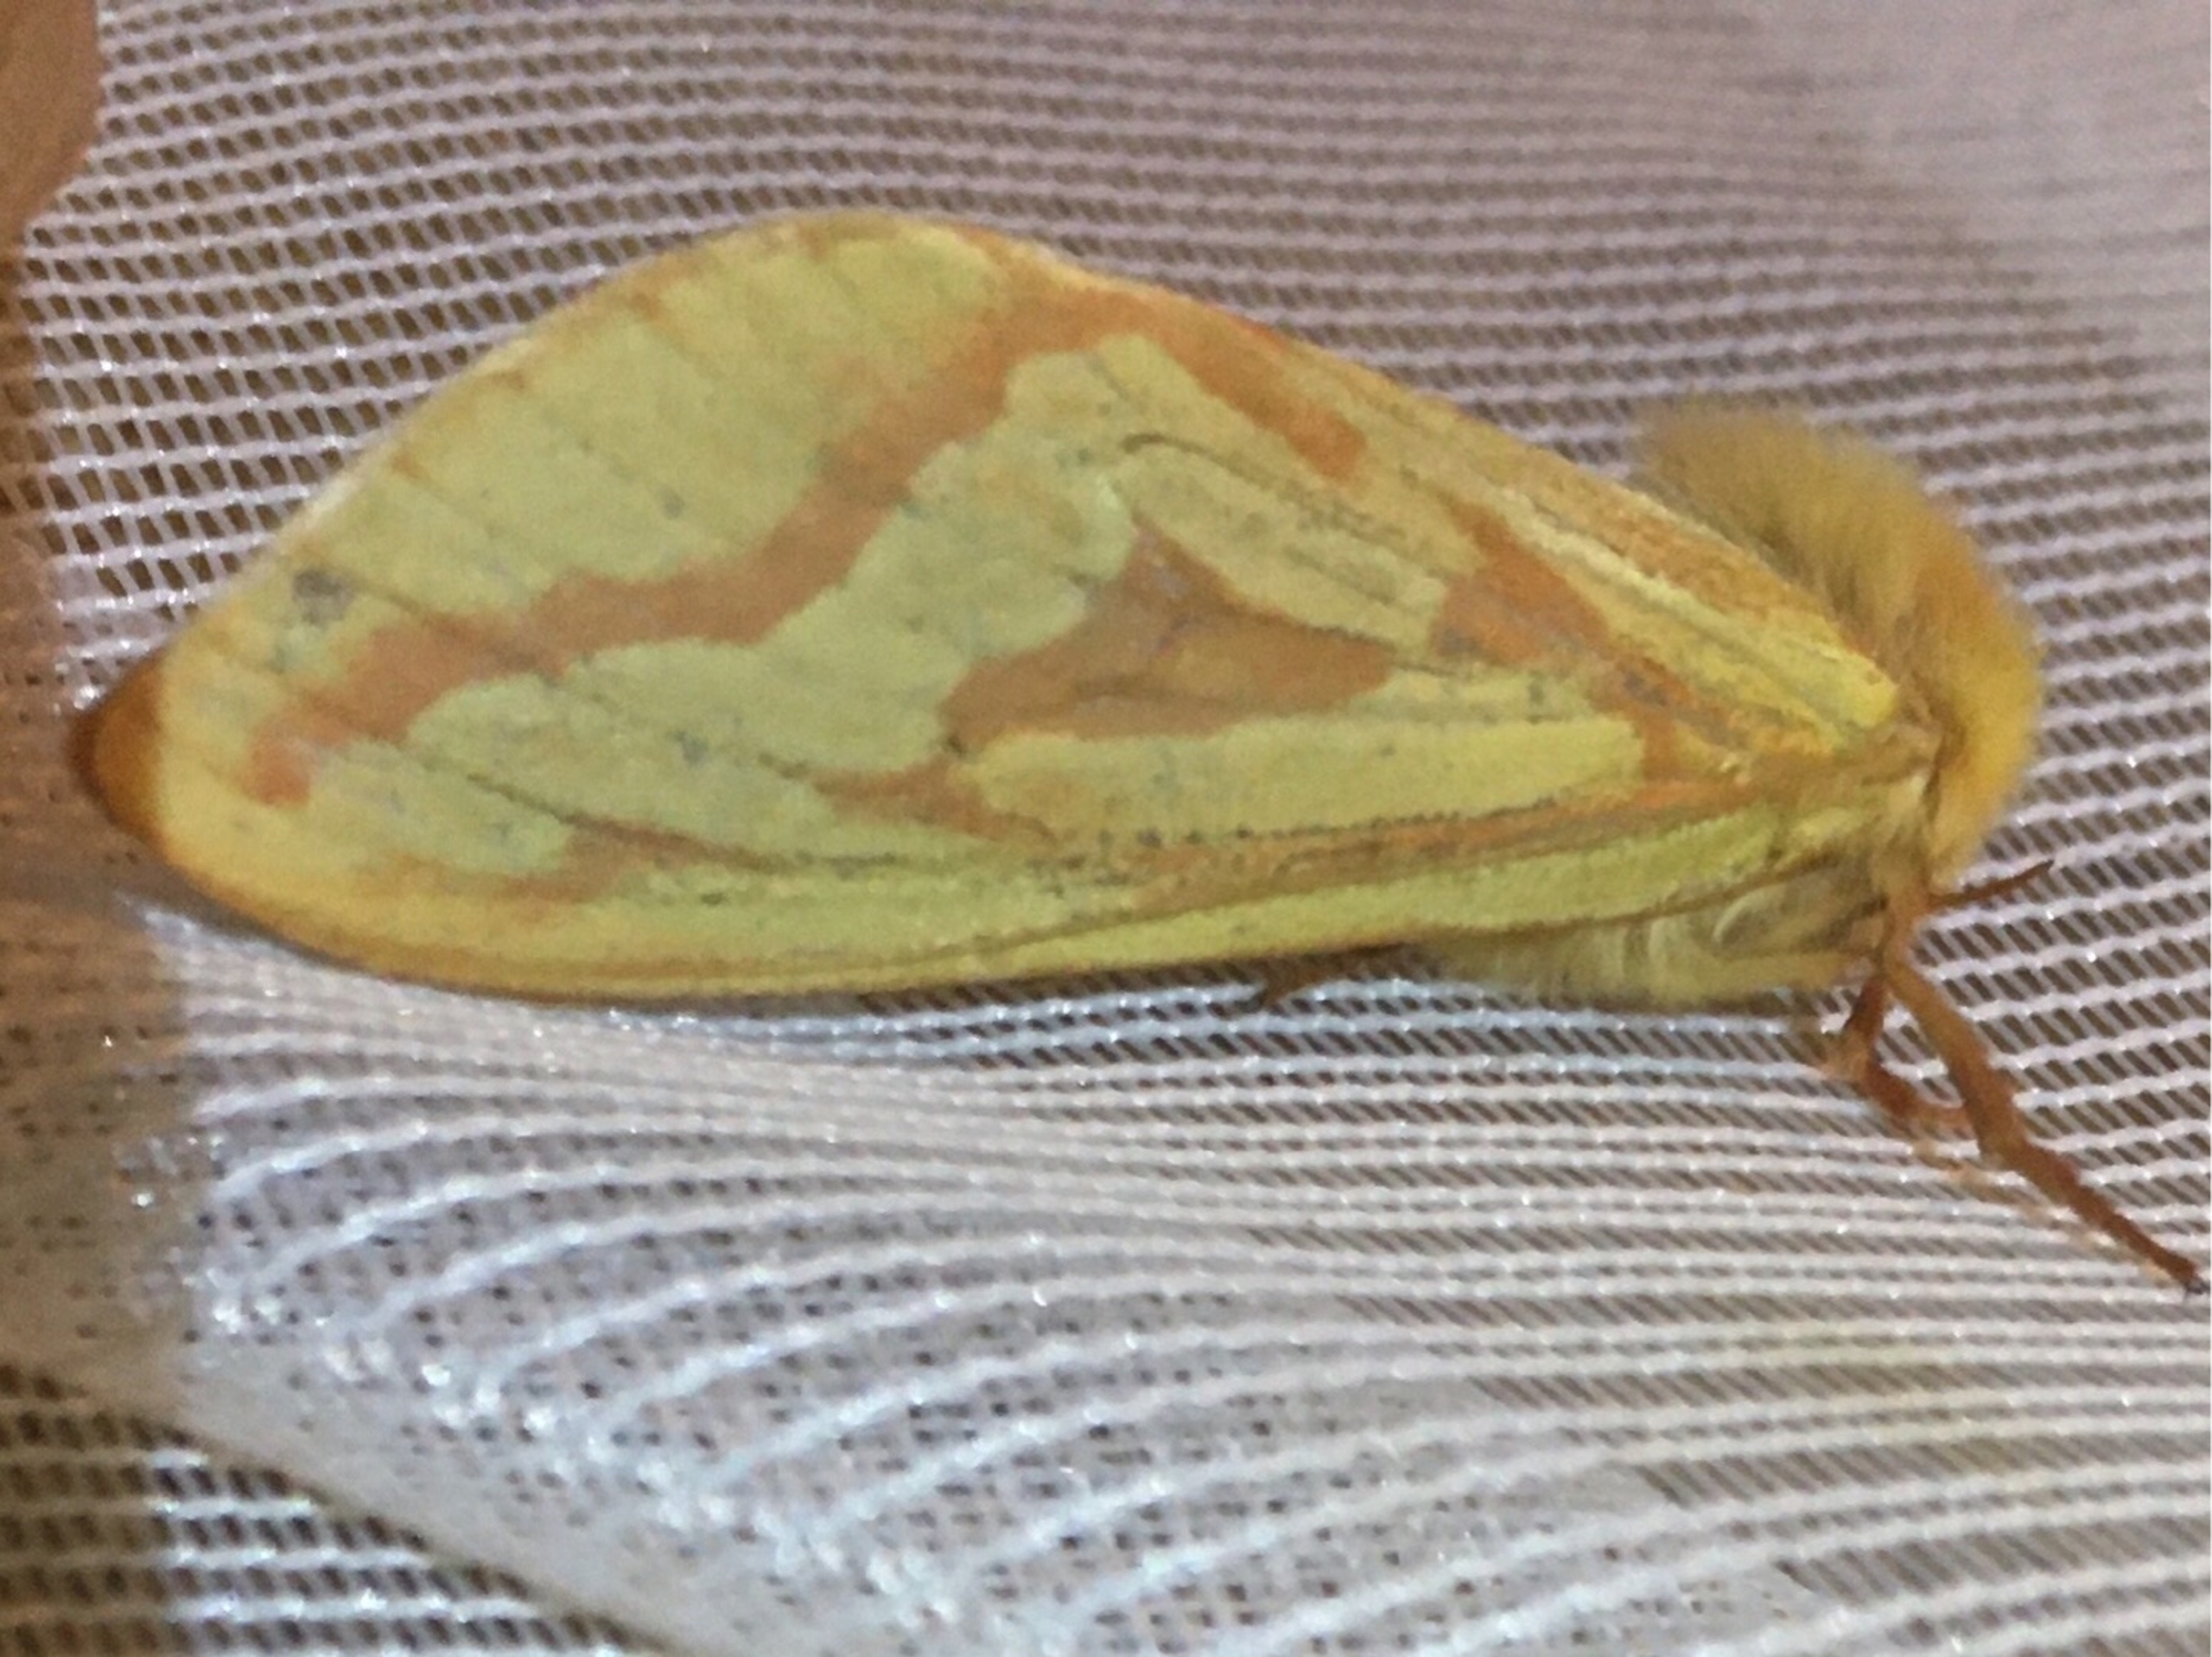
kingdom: Animalia
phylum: Arthropoda
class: Insecta
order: Lepidoptera
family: Hepialidae
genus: Hepialus
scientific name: Hepialus humuli
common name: Humlerodæder
